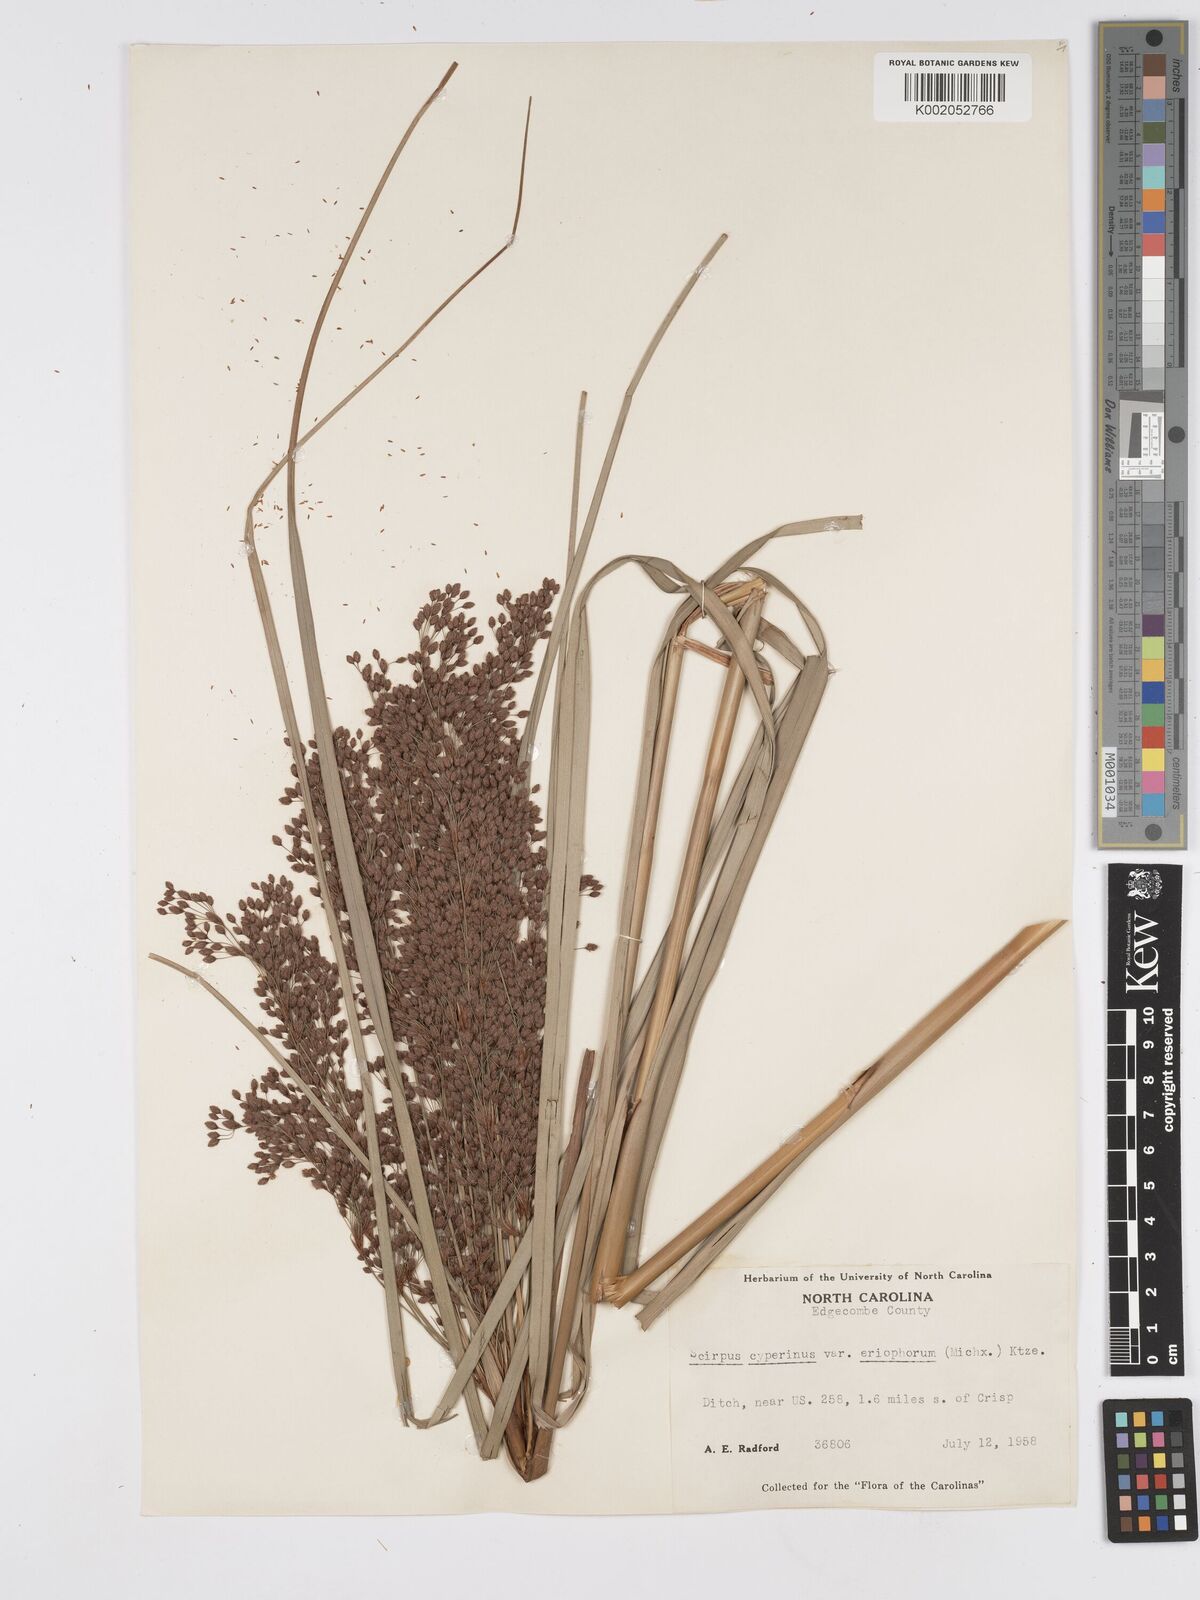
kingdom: Plantae
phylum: Tracheophyta
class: Liliopsida
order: Poales
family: Cyperaceae
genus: Scirpus
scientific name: Scirpus cyperinus
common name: Black-sheathed bulrush
